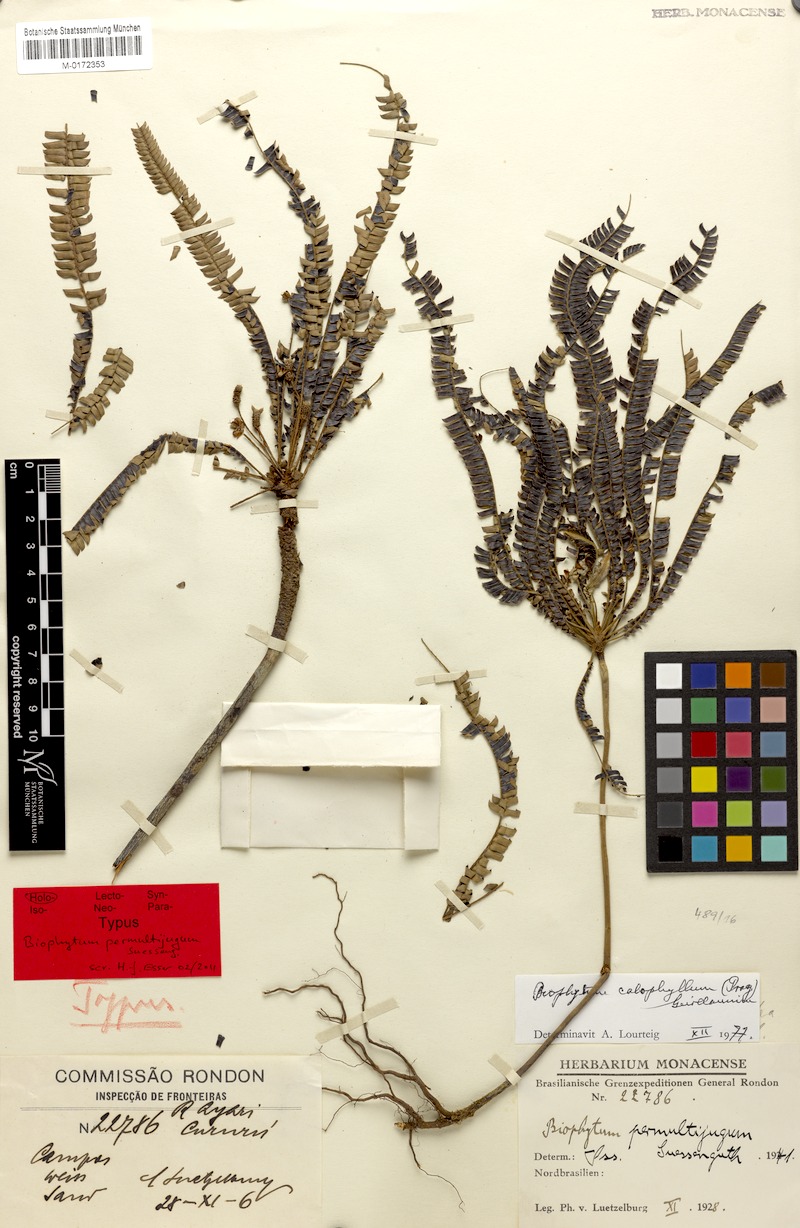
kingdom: Plantae
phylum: Tracheophyta
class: Magnoliopsida
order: Oxalidales
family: Oxalidaceae
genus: Biophytum
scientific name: Biophytum calophyllum
